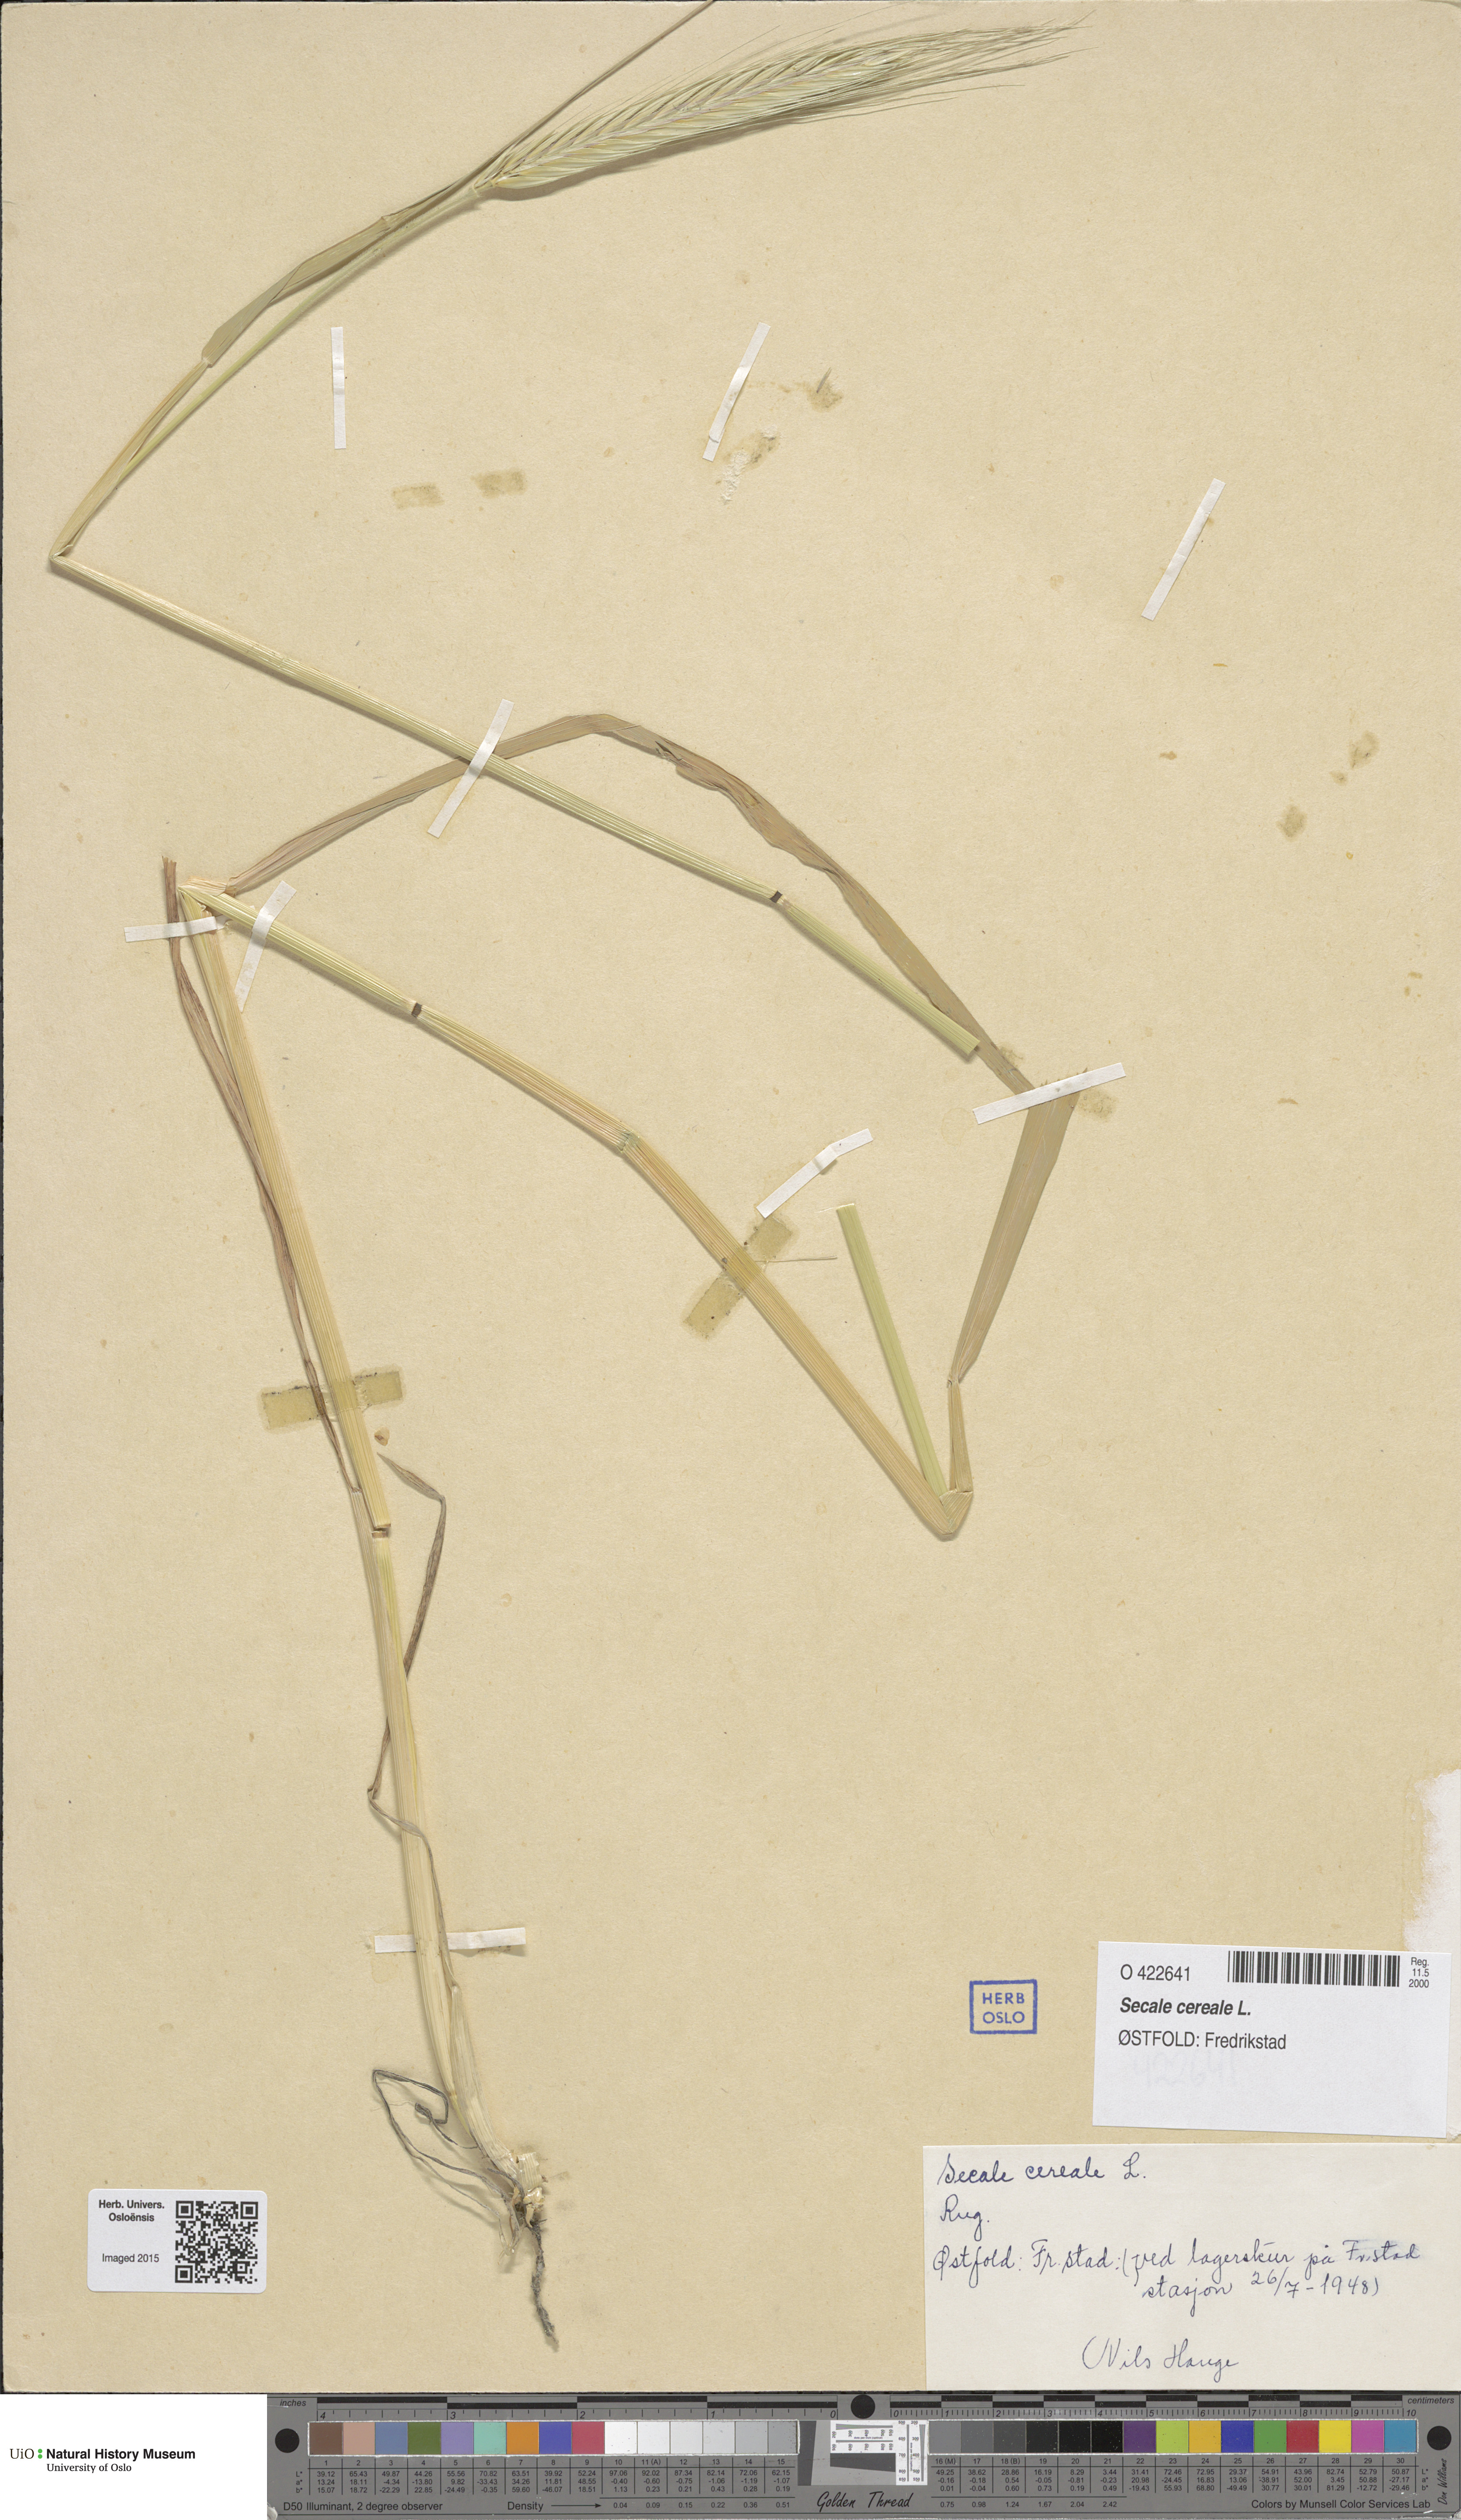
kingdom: Plantae
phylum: Tracheophyta
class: Liliopsida
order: Poales
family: Poaceae
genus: Secale
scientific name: Secale cereale
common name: Rye
